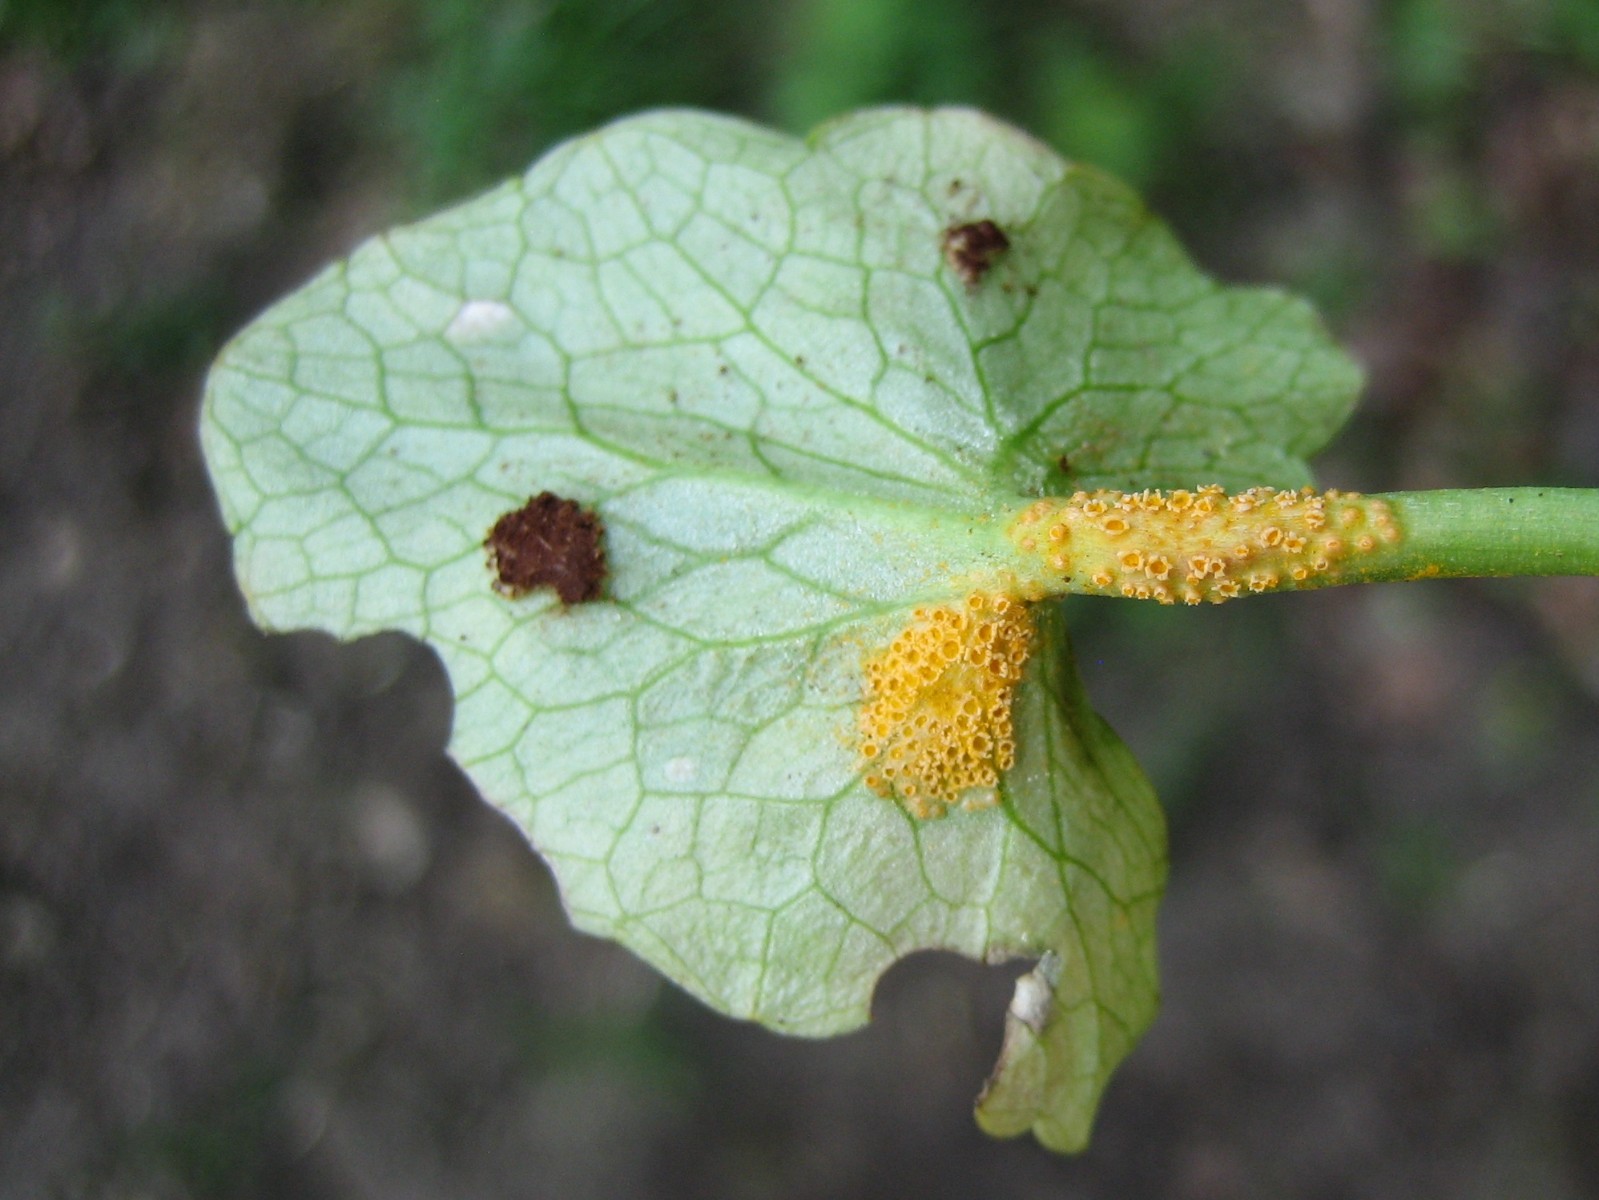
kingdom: Fungi
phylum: Basidiomycota
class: Pucciniomycetes
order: Pucciniales
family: Pucciniaceae
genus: Uromyces
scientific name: Uromyces dactylidis
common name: ranunkel-encellerust
